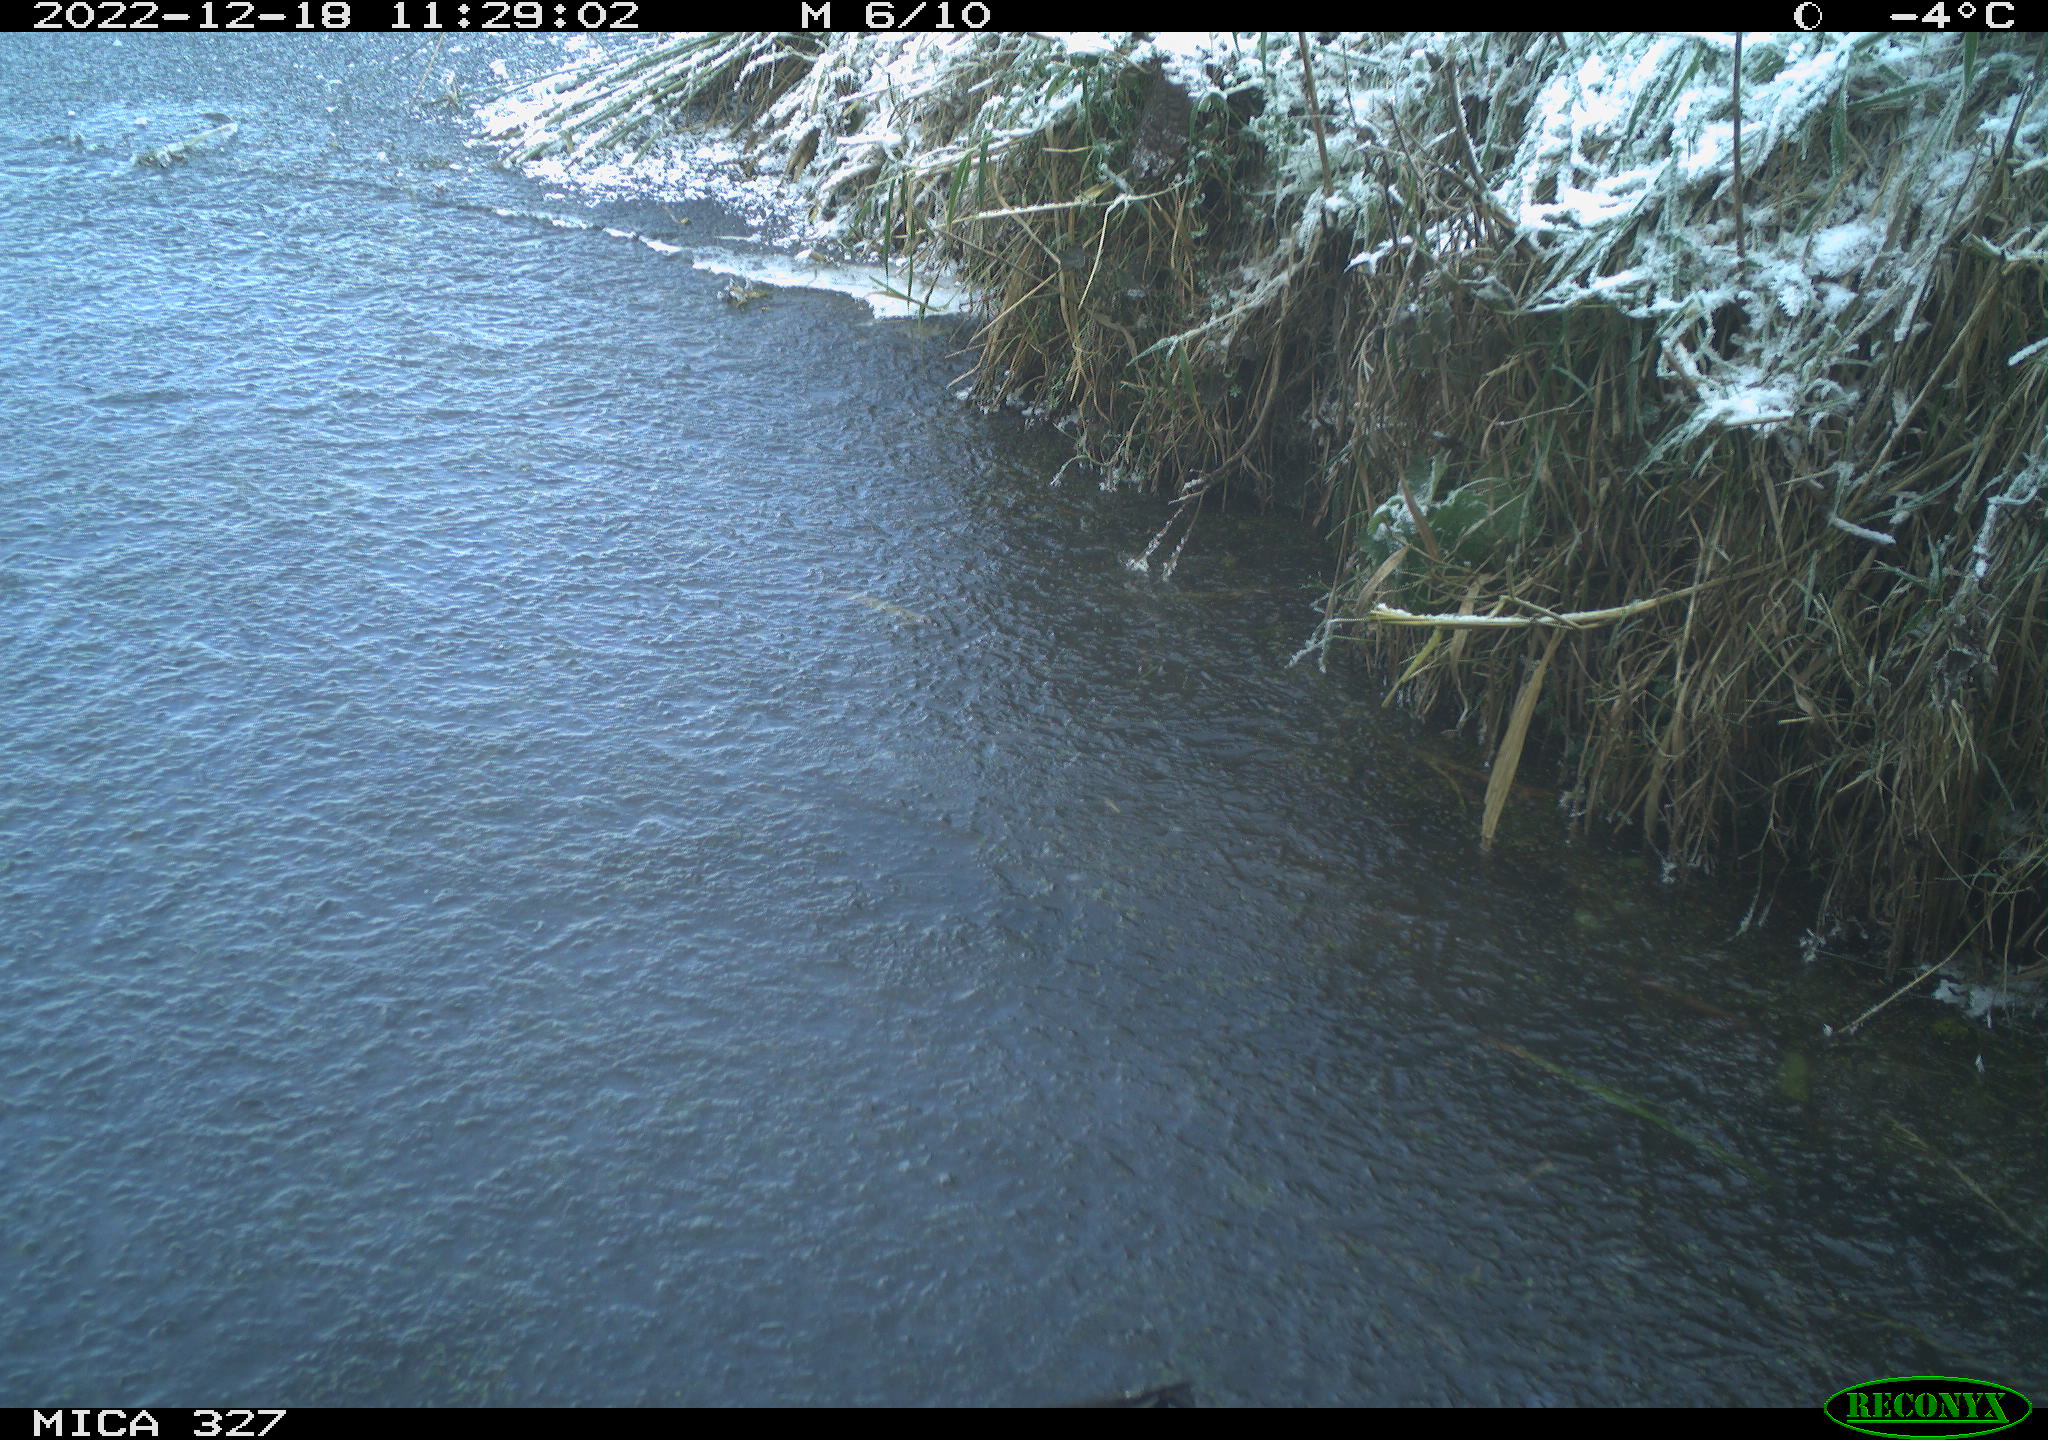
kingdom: Animalia
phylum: Chordata
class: Aves
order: Gruiformes
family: Rallidae
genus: Gallinula
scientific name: Gallinula chloropus
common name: Common moorhen
